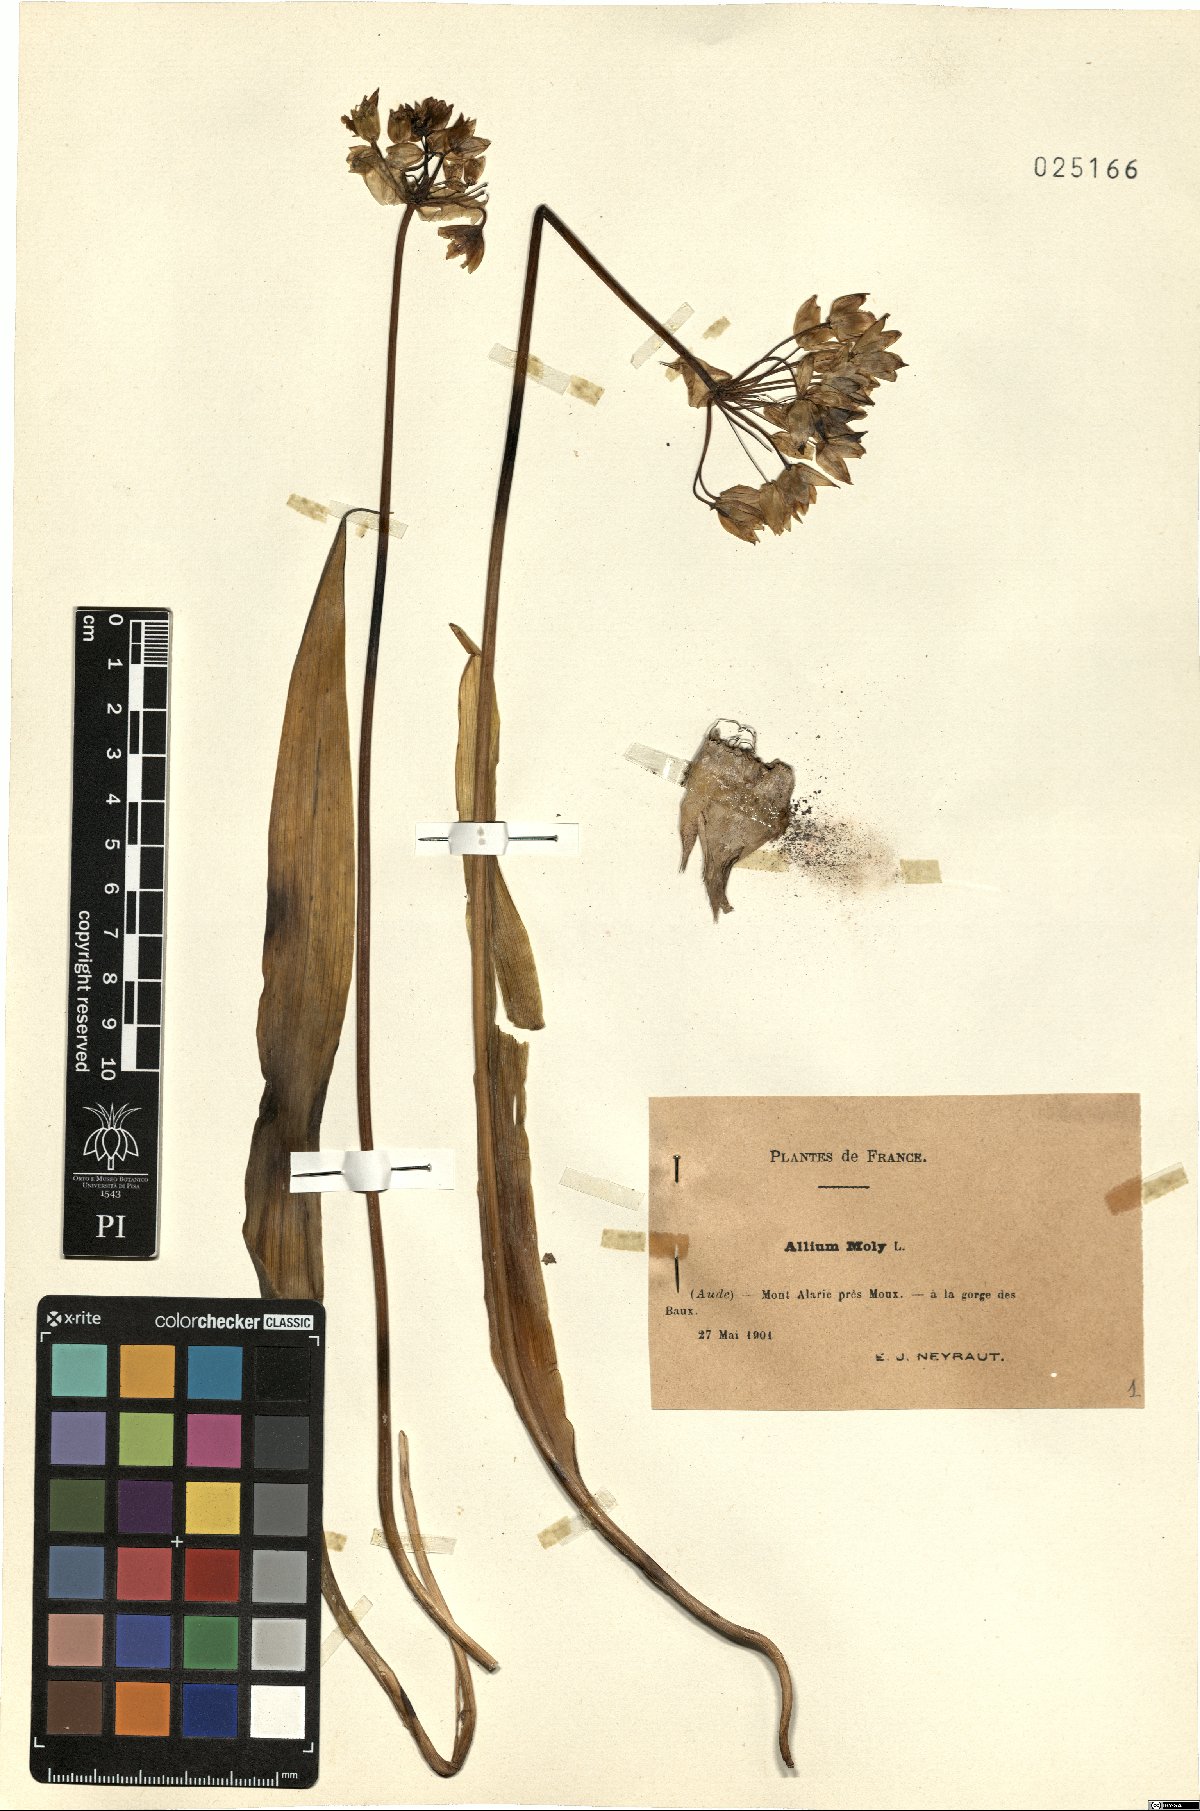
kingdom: Plantae
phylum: Tracheophyta
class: Liliopsida
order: Asparagales
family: Amaryllidaceae
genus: Allium
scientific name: Allium moly
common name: Yellow garlic
